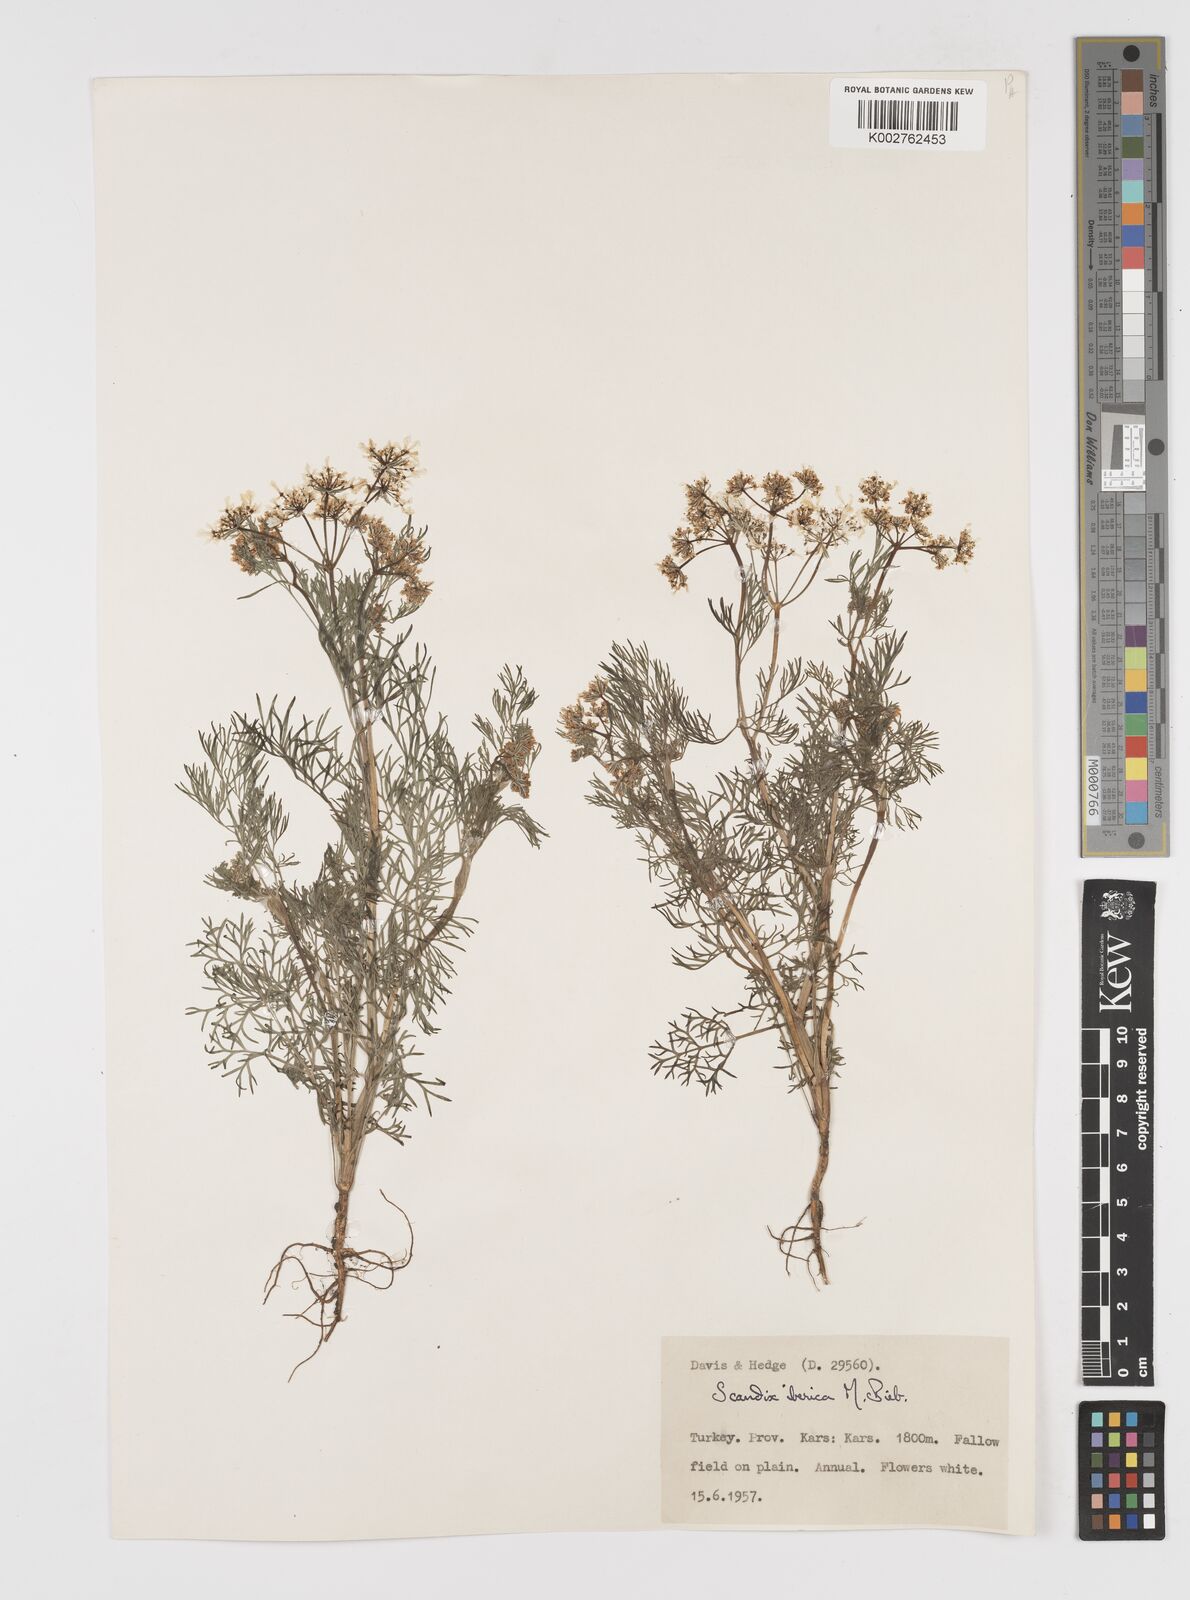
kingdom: Plantae
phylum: Tracheophyta
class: Magnoliopsida
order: Apiales
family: Apiaceae
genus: Scandix
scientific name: Scandix iberica
